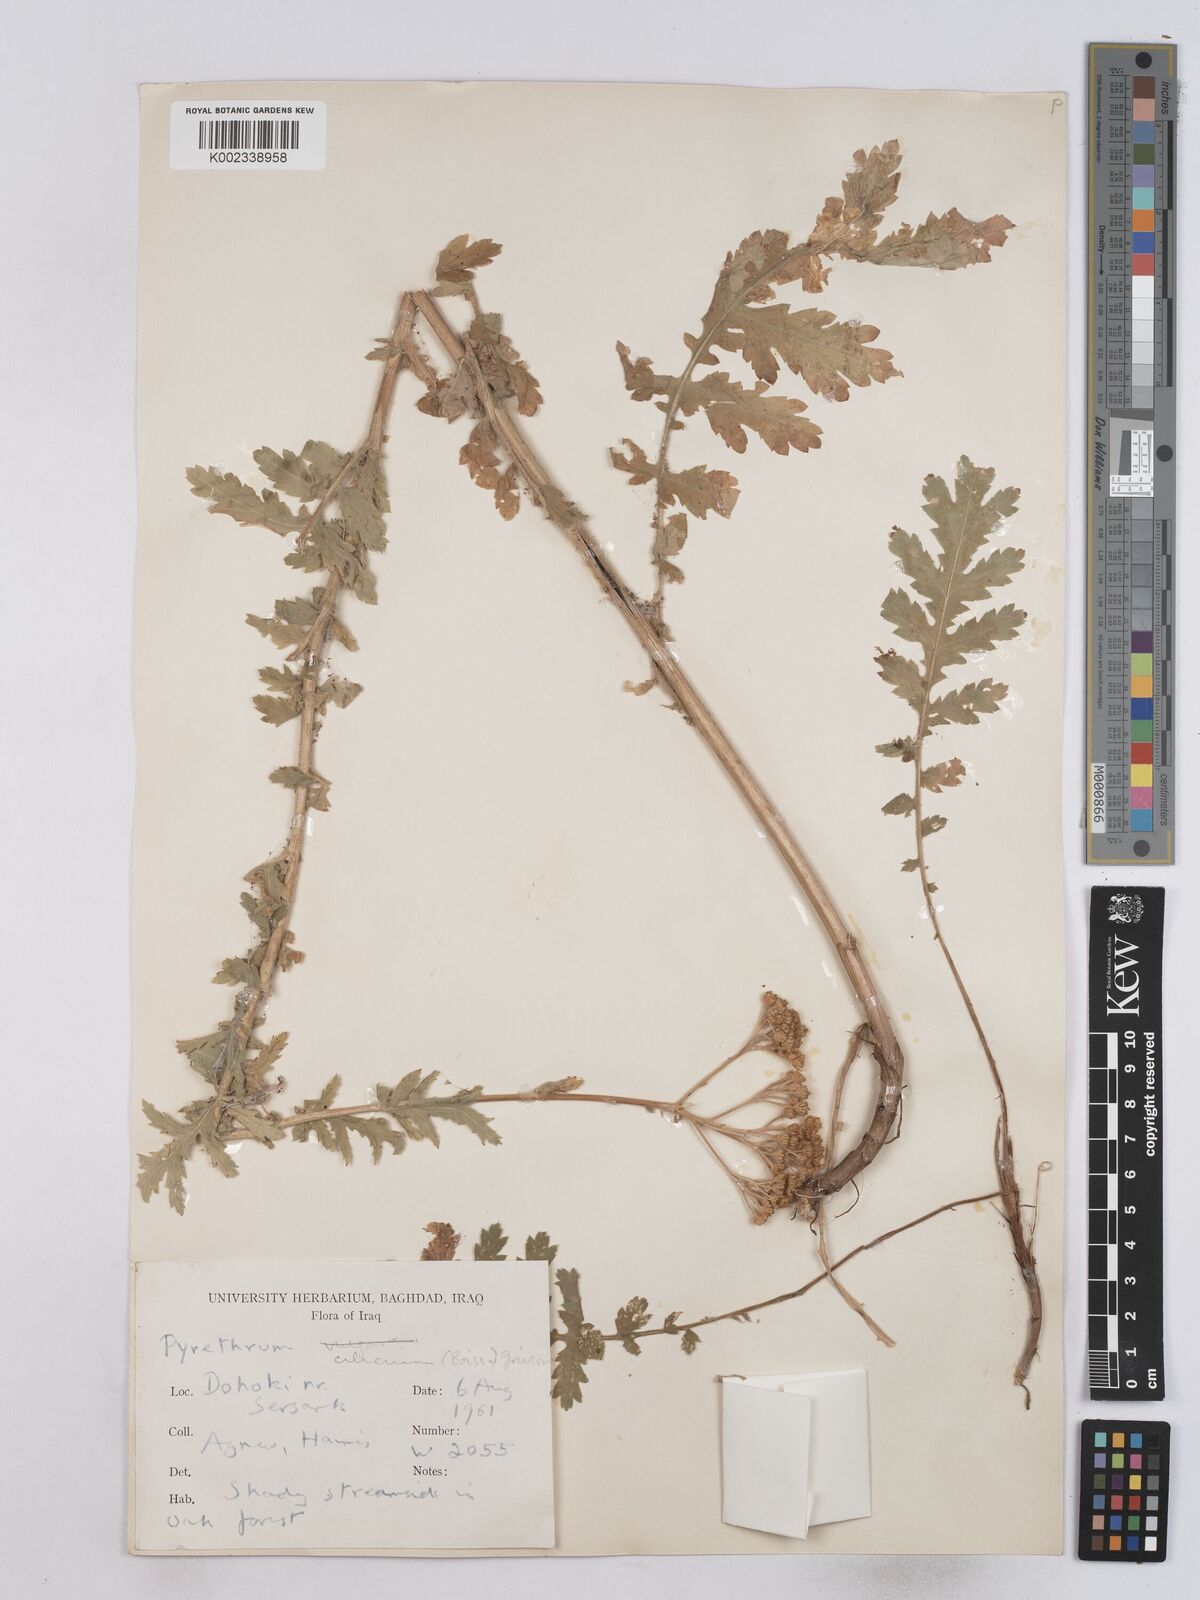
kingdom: Plantae
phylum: Tracheophyta
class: Magnoliopsida
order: Asterales
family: Asteraceae
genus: Tanacetum
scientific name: Tanacetum cilicicum
